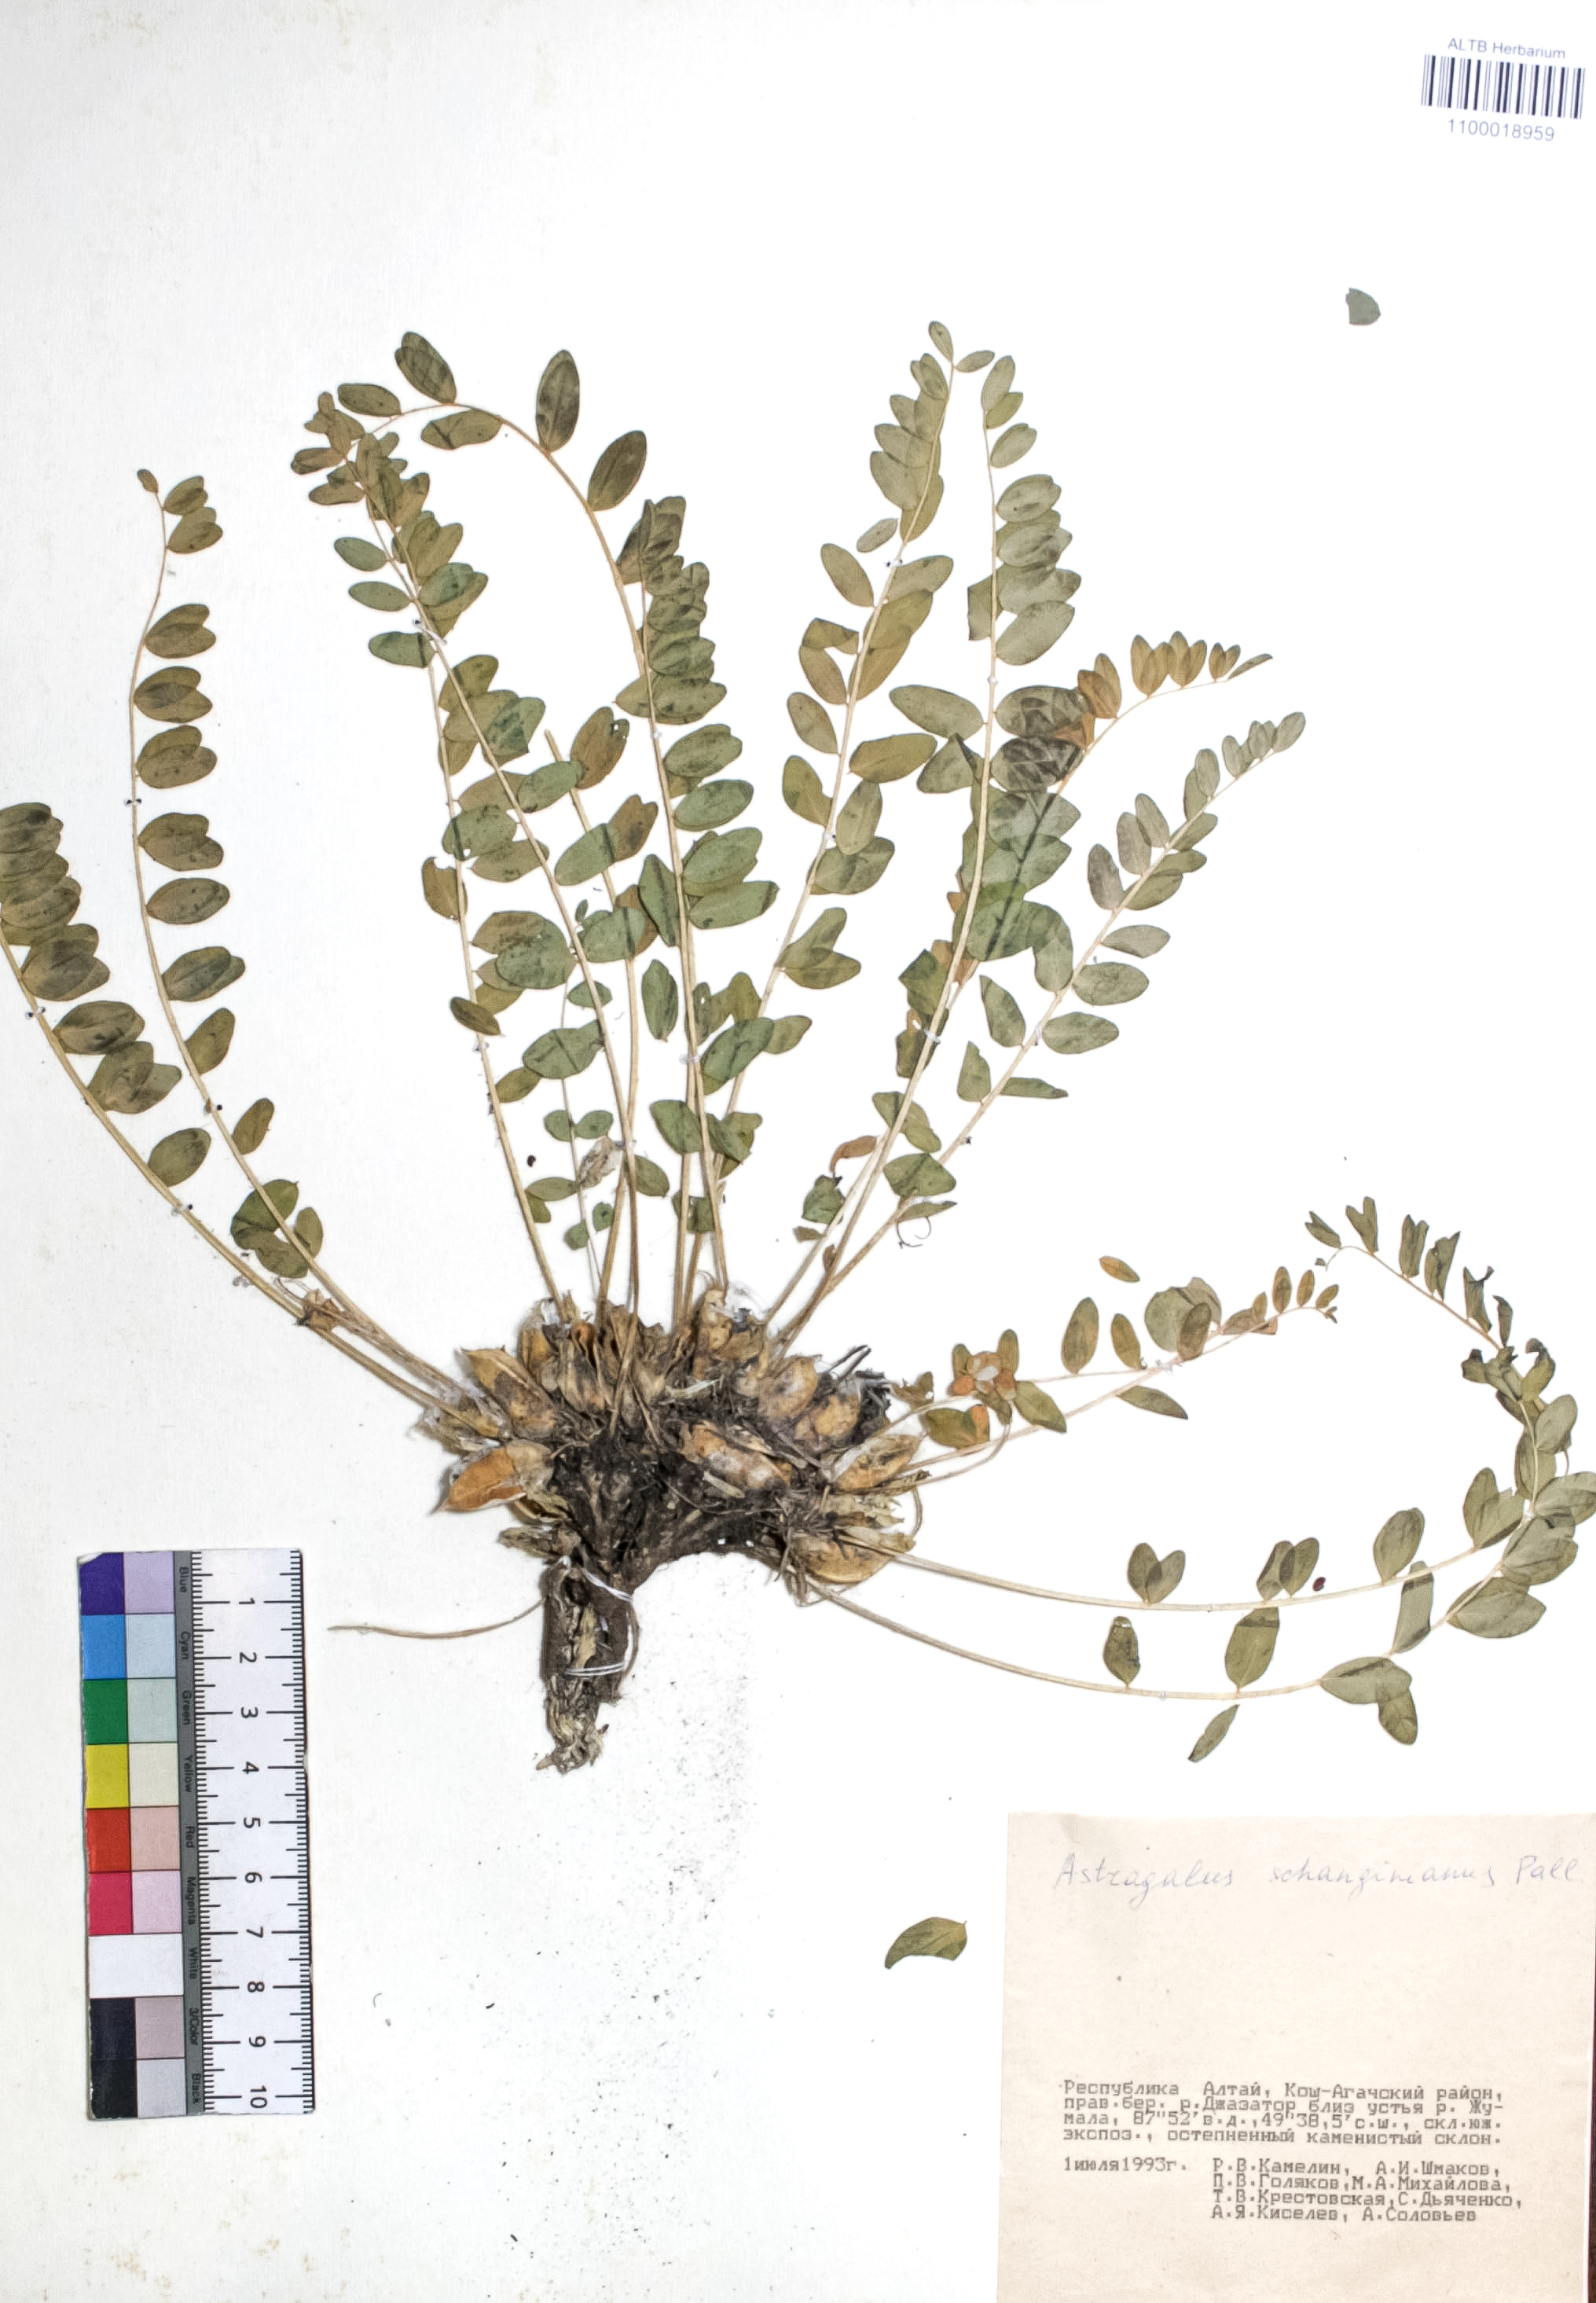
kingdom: Plantae
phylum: Tracheophyta
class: Magnoliopsida
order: Fabales
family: Fabaceae
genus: Astragalus
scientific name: Astragalus schanginianus
